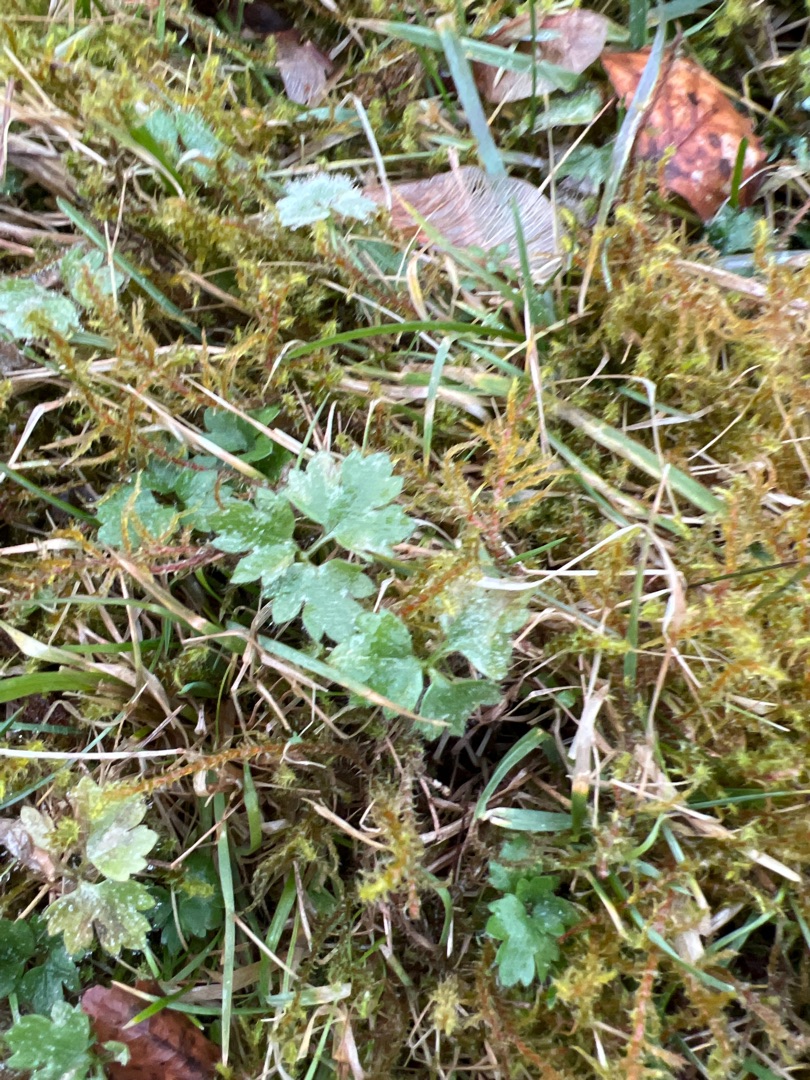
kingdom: Plantae
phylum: Tracheophyta
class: Magnoliopsida
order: Ranunculales
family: Ranunculaceae
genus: Ranunculus
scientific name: Ranunculus repens
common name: Lav ranunkel
